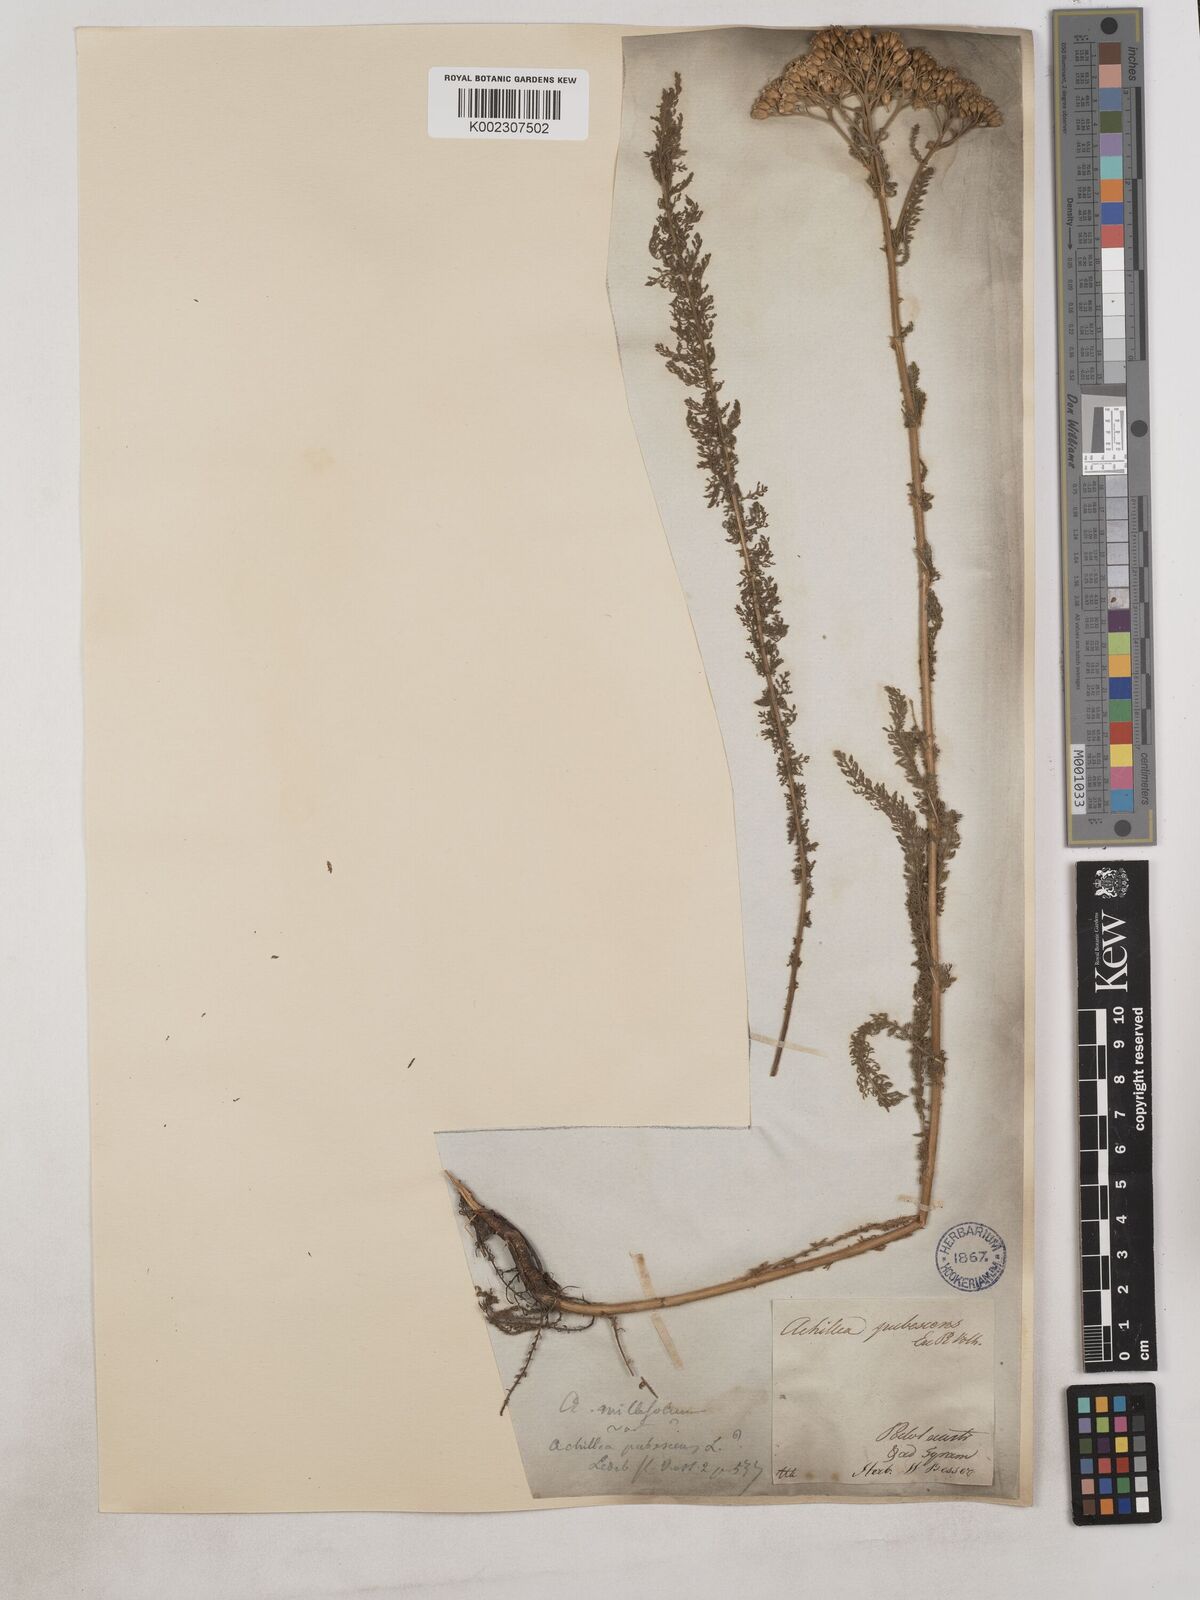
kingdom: Plantae
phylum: Tracheophyta
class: Magnoliopsida
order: Asterales
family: Asteraceae
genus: Achillea
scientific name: Achillea arabica
